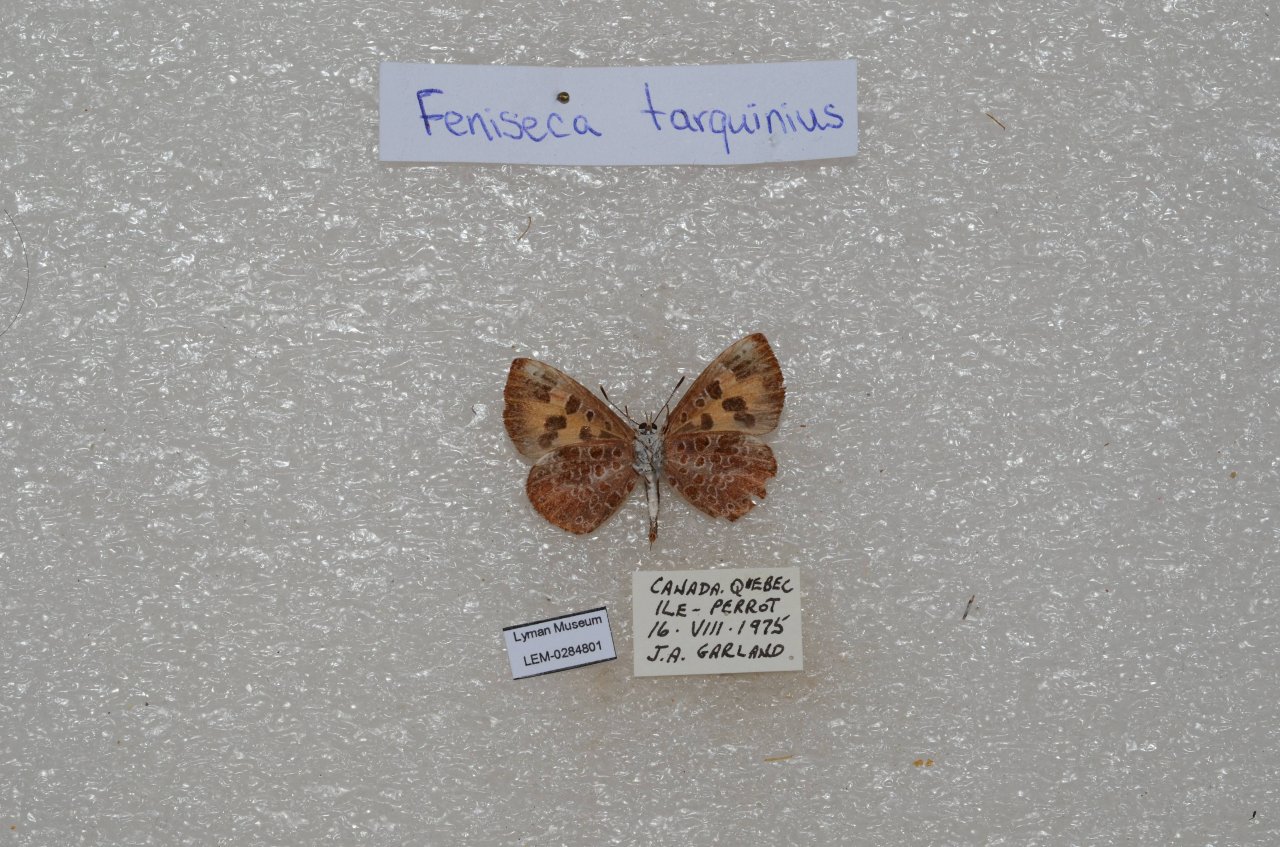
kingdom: Animalia
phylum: Arthropoda
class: Insecta
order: Lepidoptera
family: Lycaenidae
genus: Feniseca
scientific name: Feniseca tarquinius
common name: Harvester
